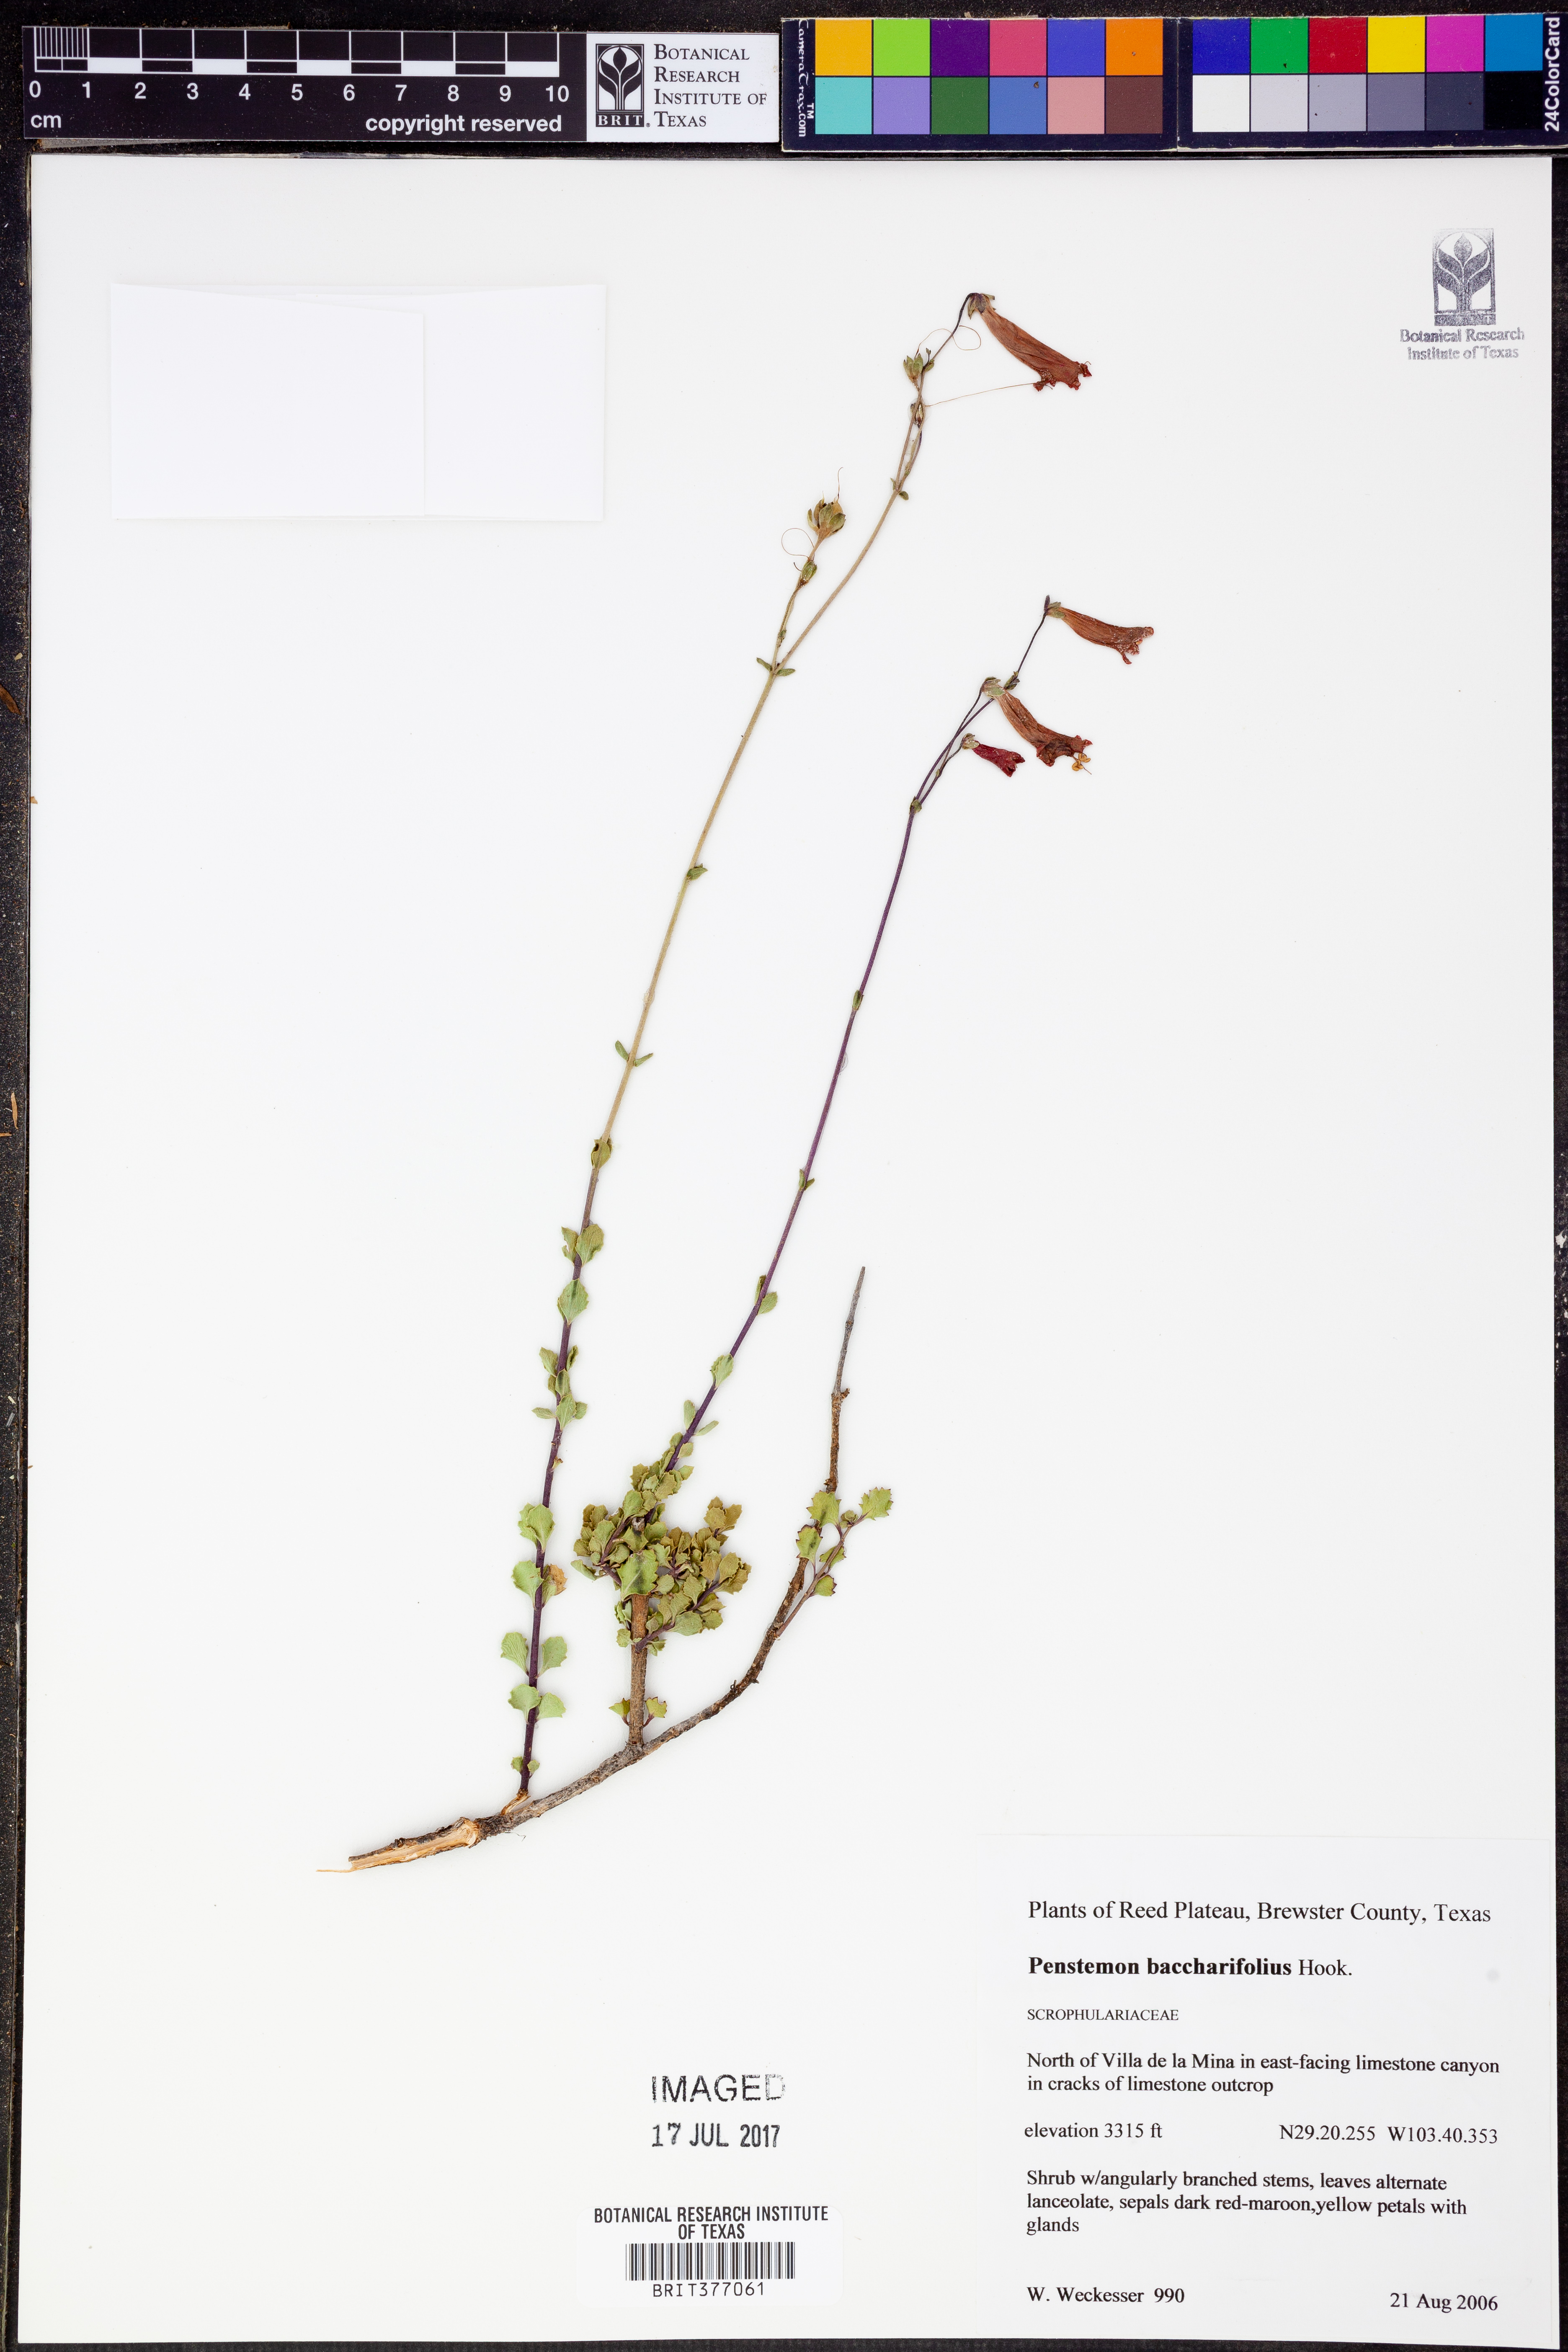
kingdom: Plantae
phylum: Tracheophyta
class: Magnoliopsida
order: Lamiales
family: Plantaginaceae
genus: Penstemon
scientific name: Penstemon baccharifolius
